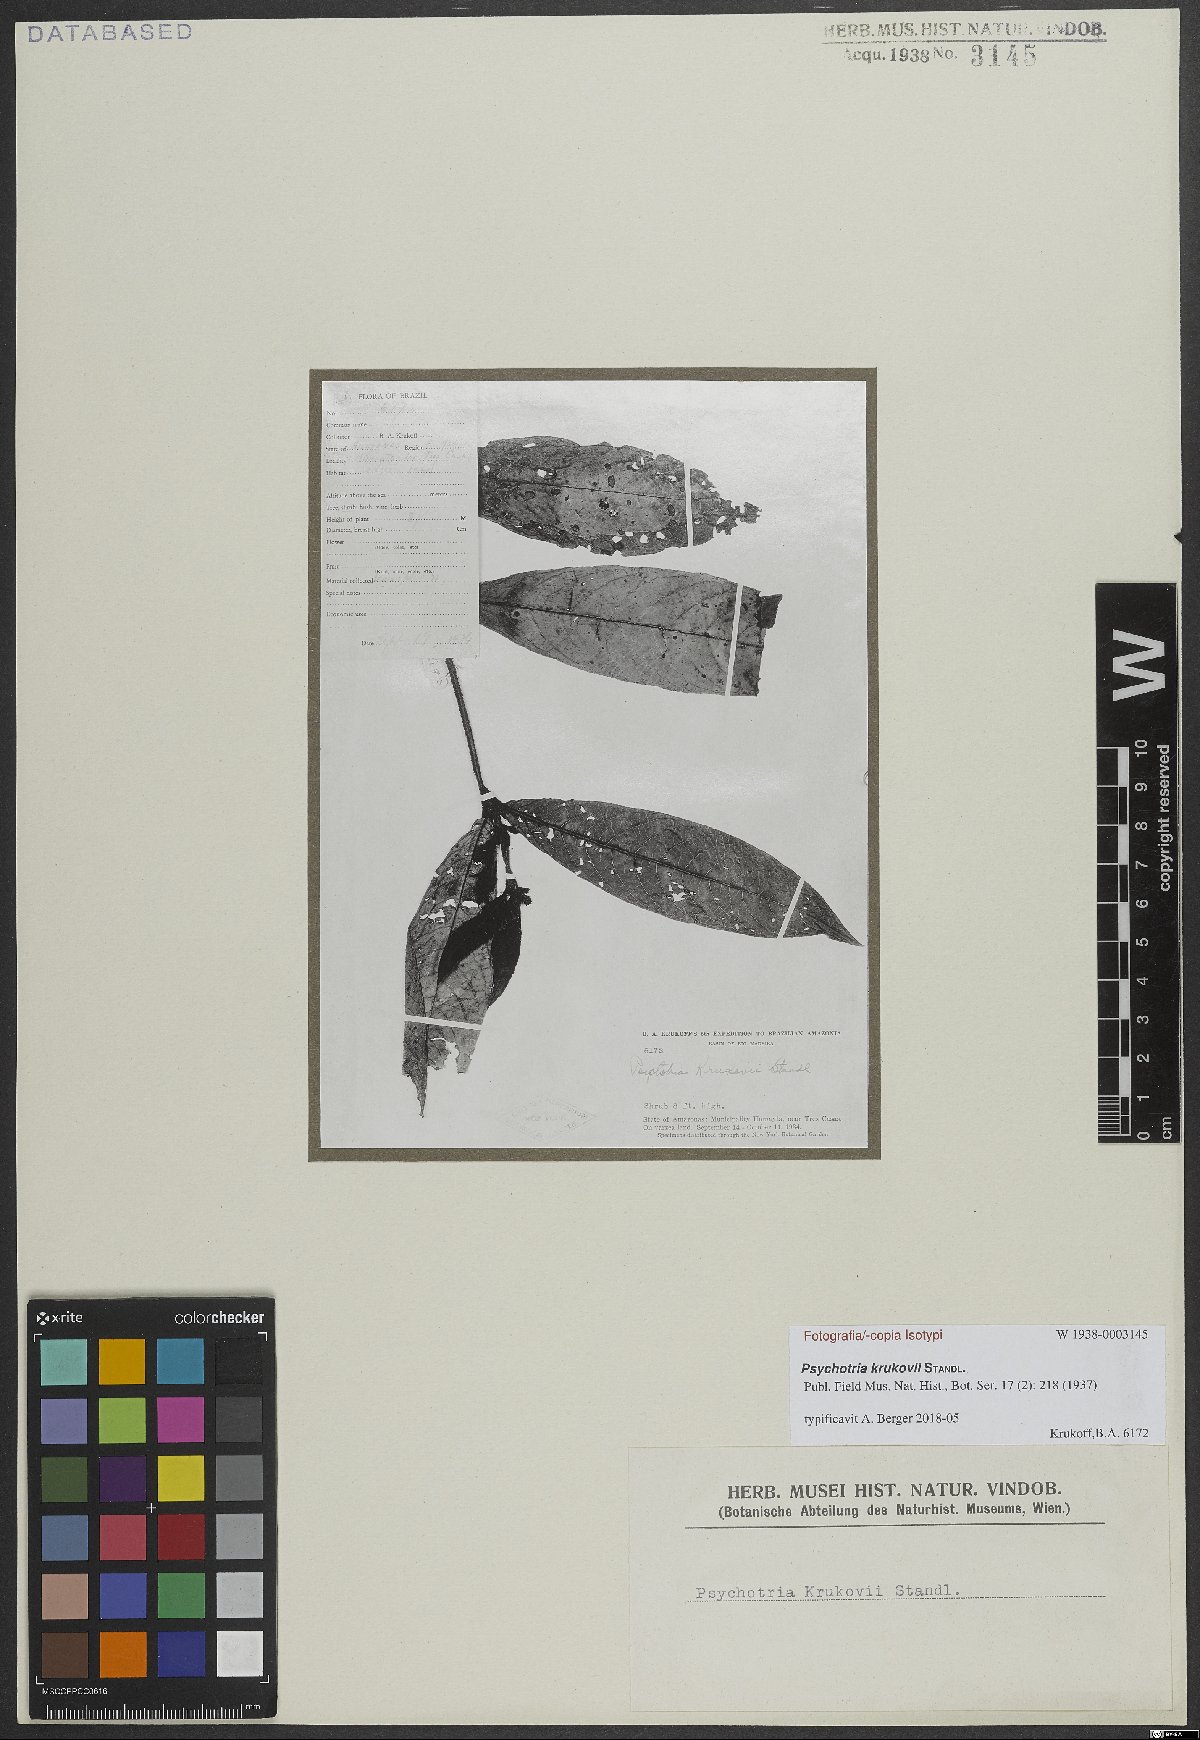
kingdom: Plantae
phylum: Tracheophyta
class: Magnoliopsida
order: Gentianales
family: Rubiaceae
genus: Psychotria
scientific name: Psychotria krukovii
